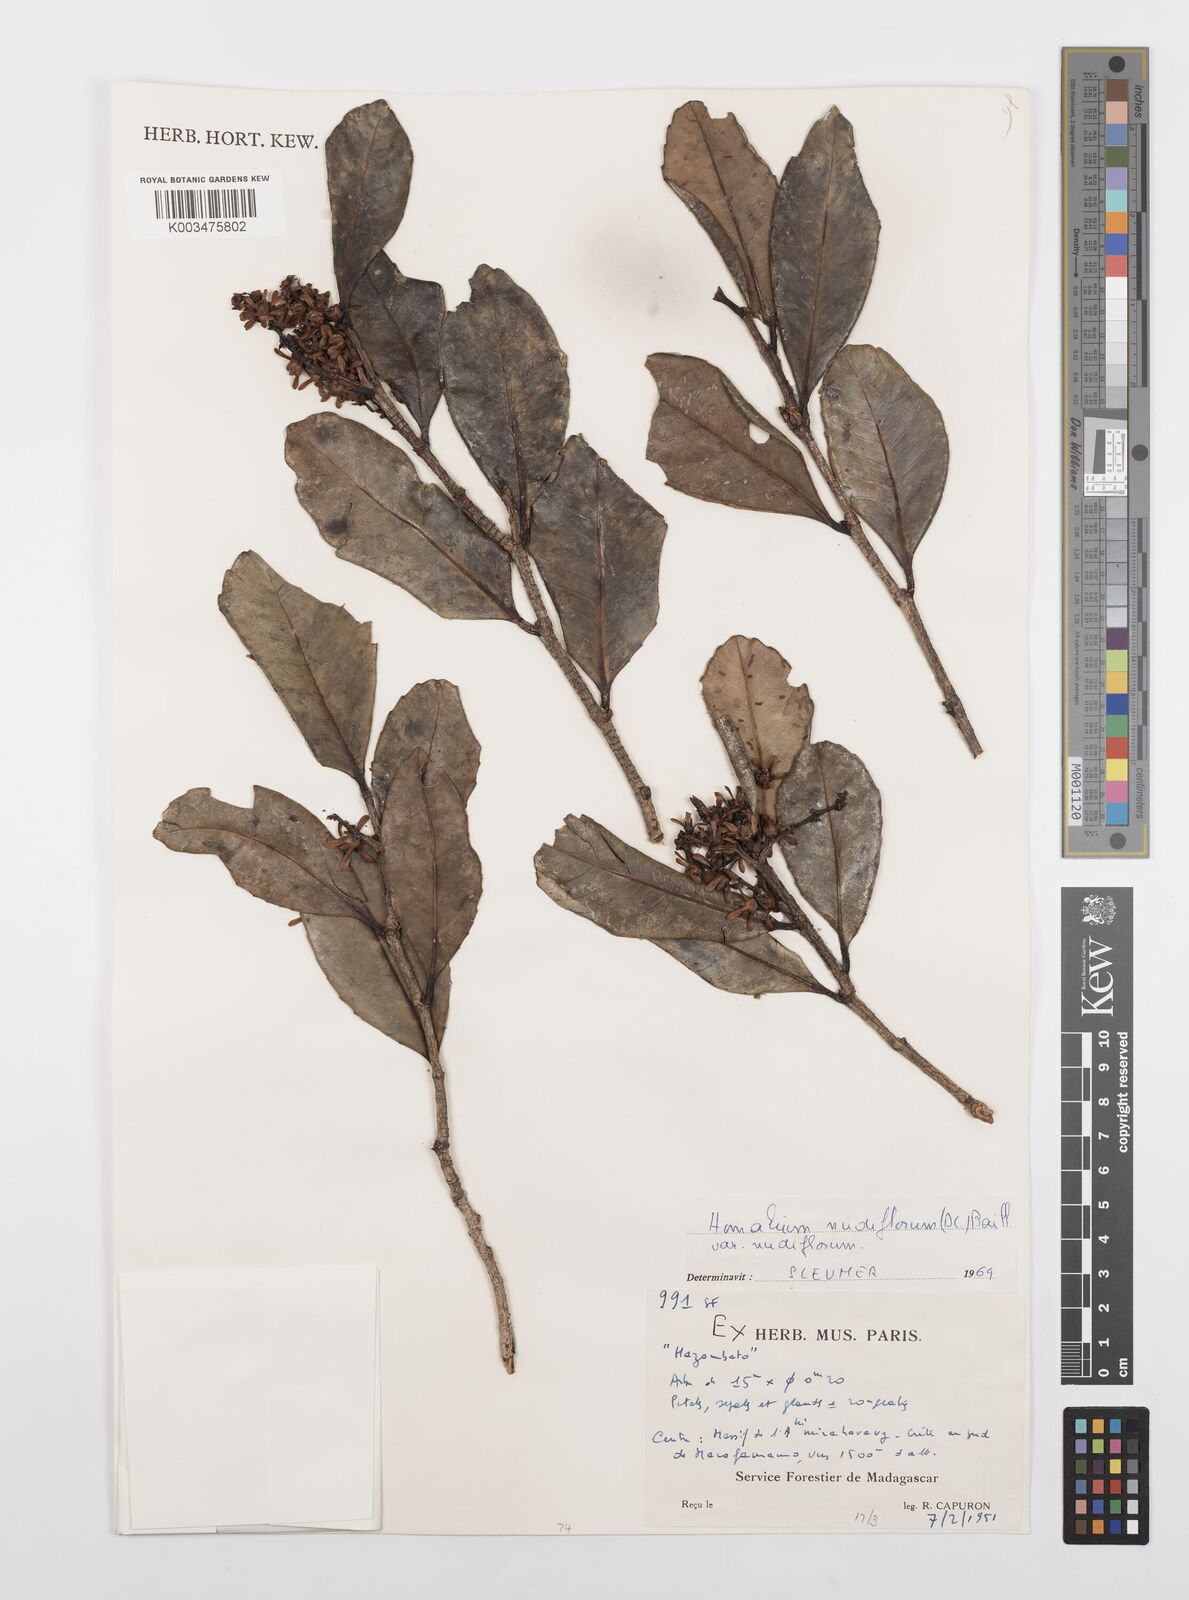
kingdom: Plantae
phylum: Tracheophyta
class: Magnoliopsida
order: Malpighiales
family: Salicaceae
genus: Homalium
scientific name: Homalium nudiflorum
